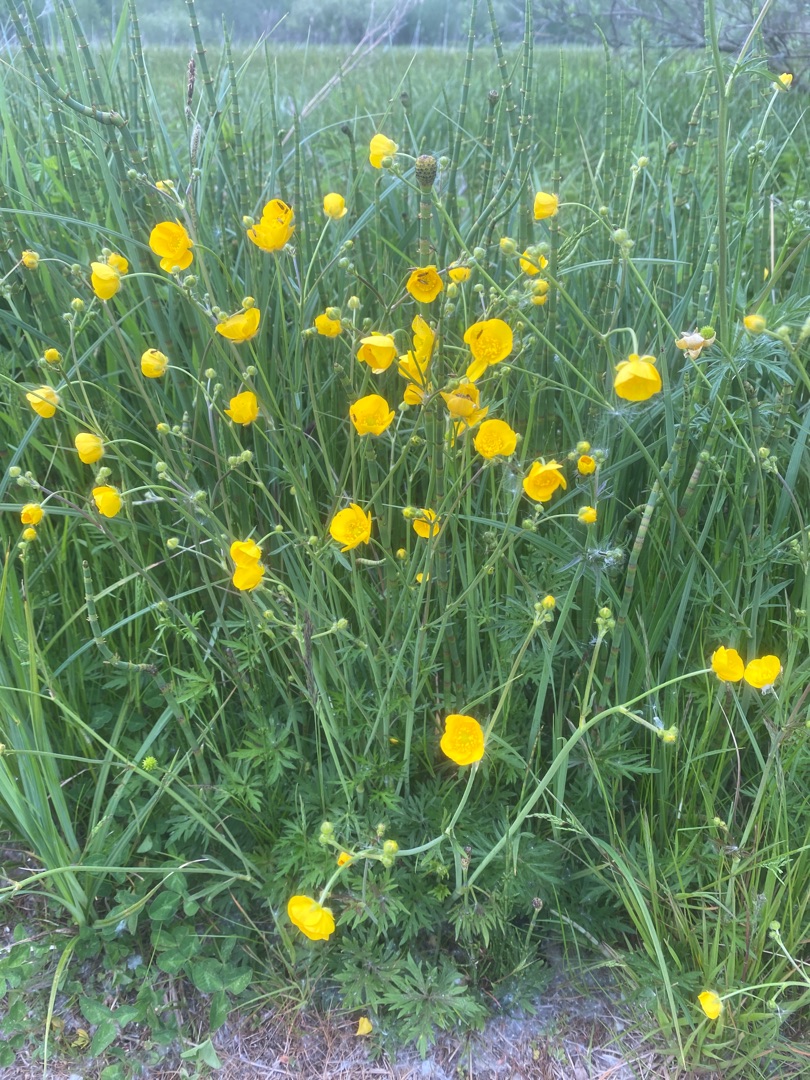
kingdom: Plantae
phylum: Tracheophyta
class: Magnoliopsida
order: Ranunculales
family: Ranunculaceae
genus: Ranunculus
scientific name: Ranunculus acris
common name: Bidende ranunkel
